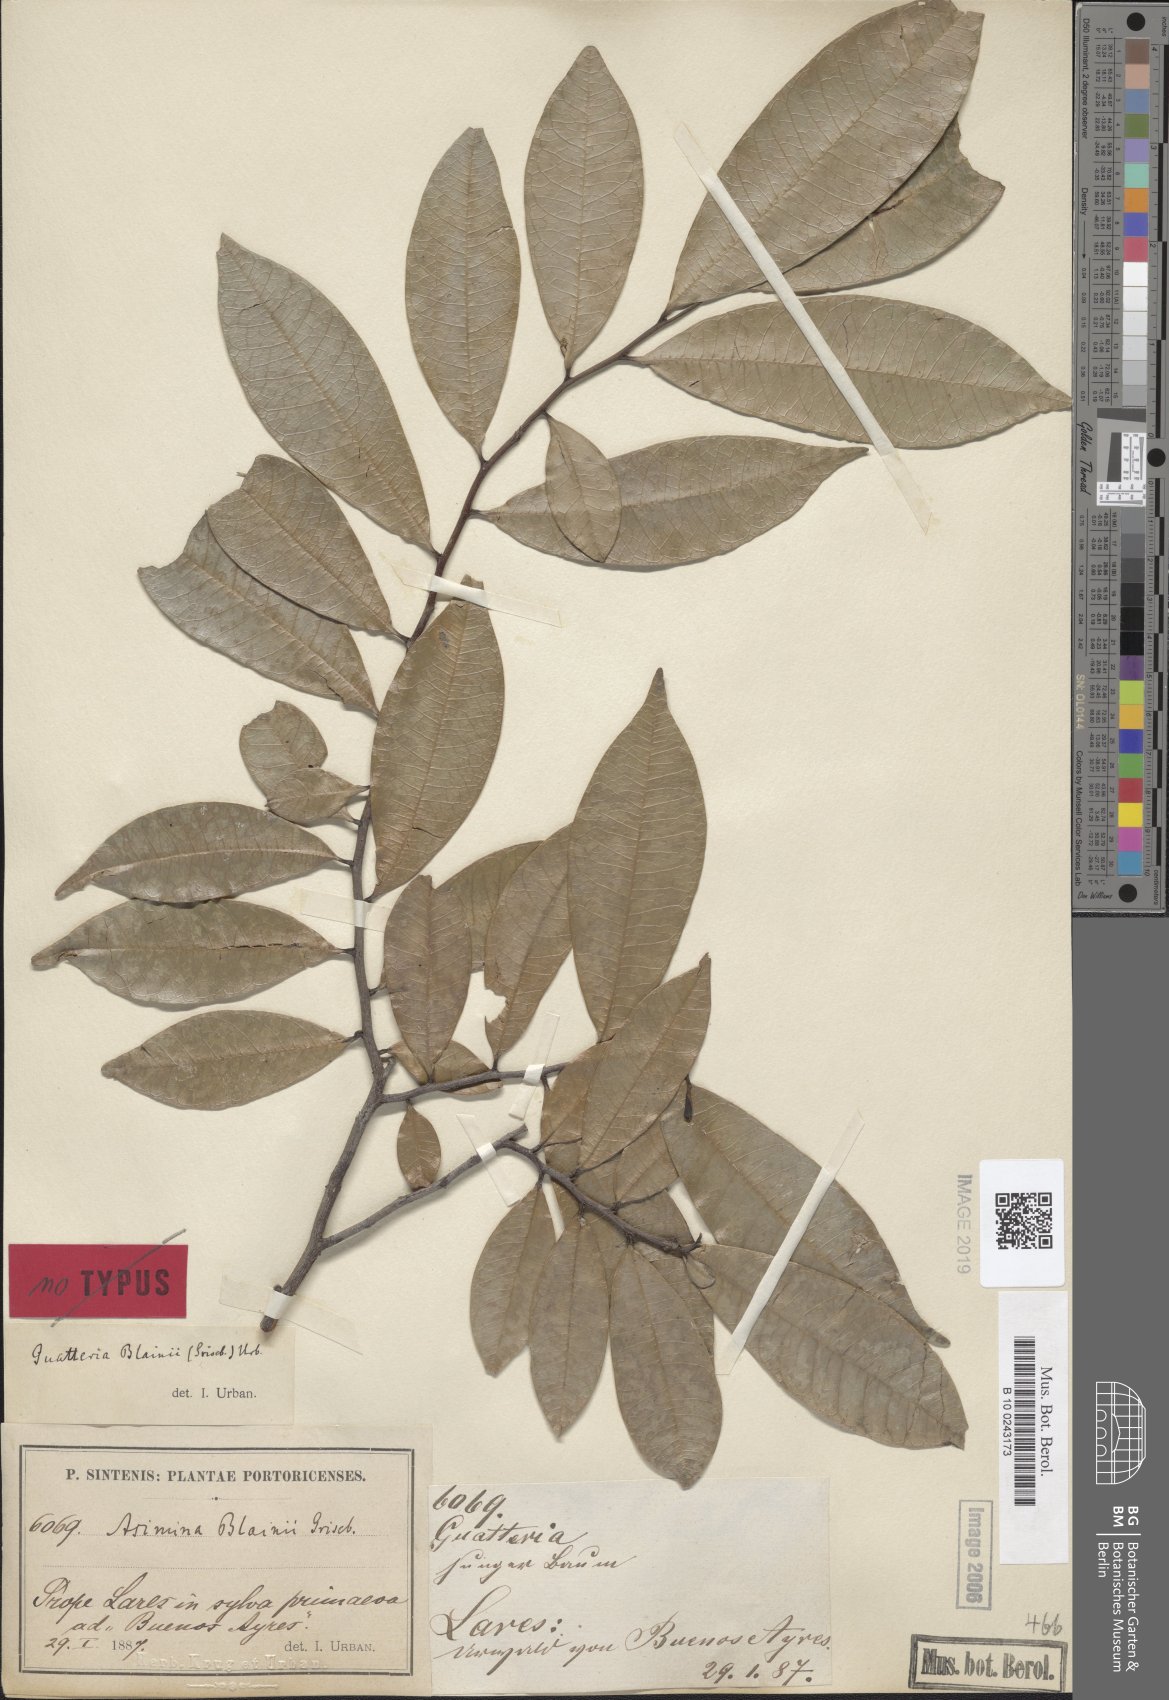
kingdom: Plantae
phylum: Tracheophyta
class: Magnoliopsida
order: Magnoliales
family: Annonaceae
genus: Guatteria
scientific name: Guatteria blainii
